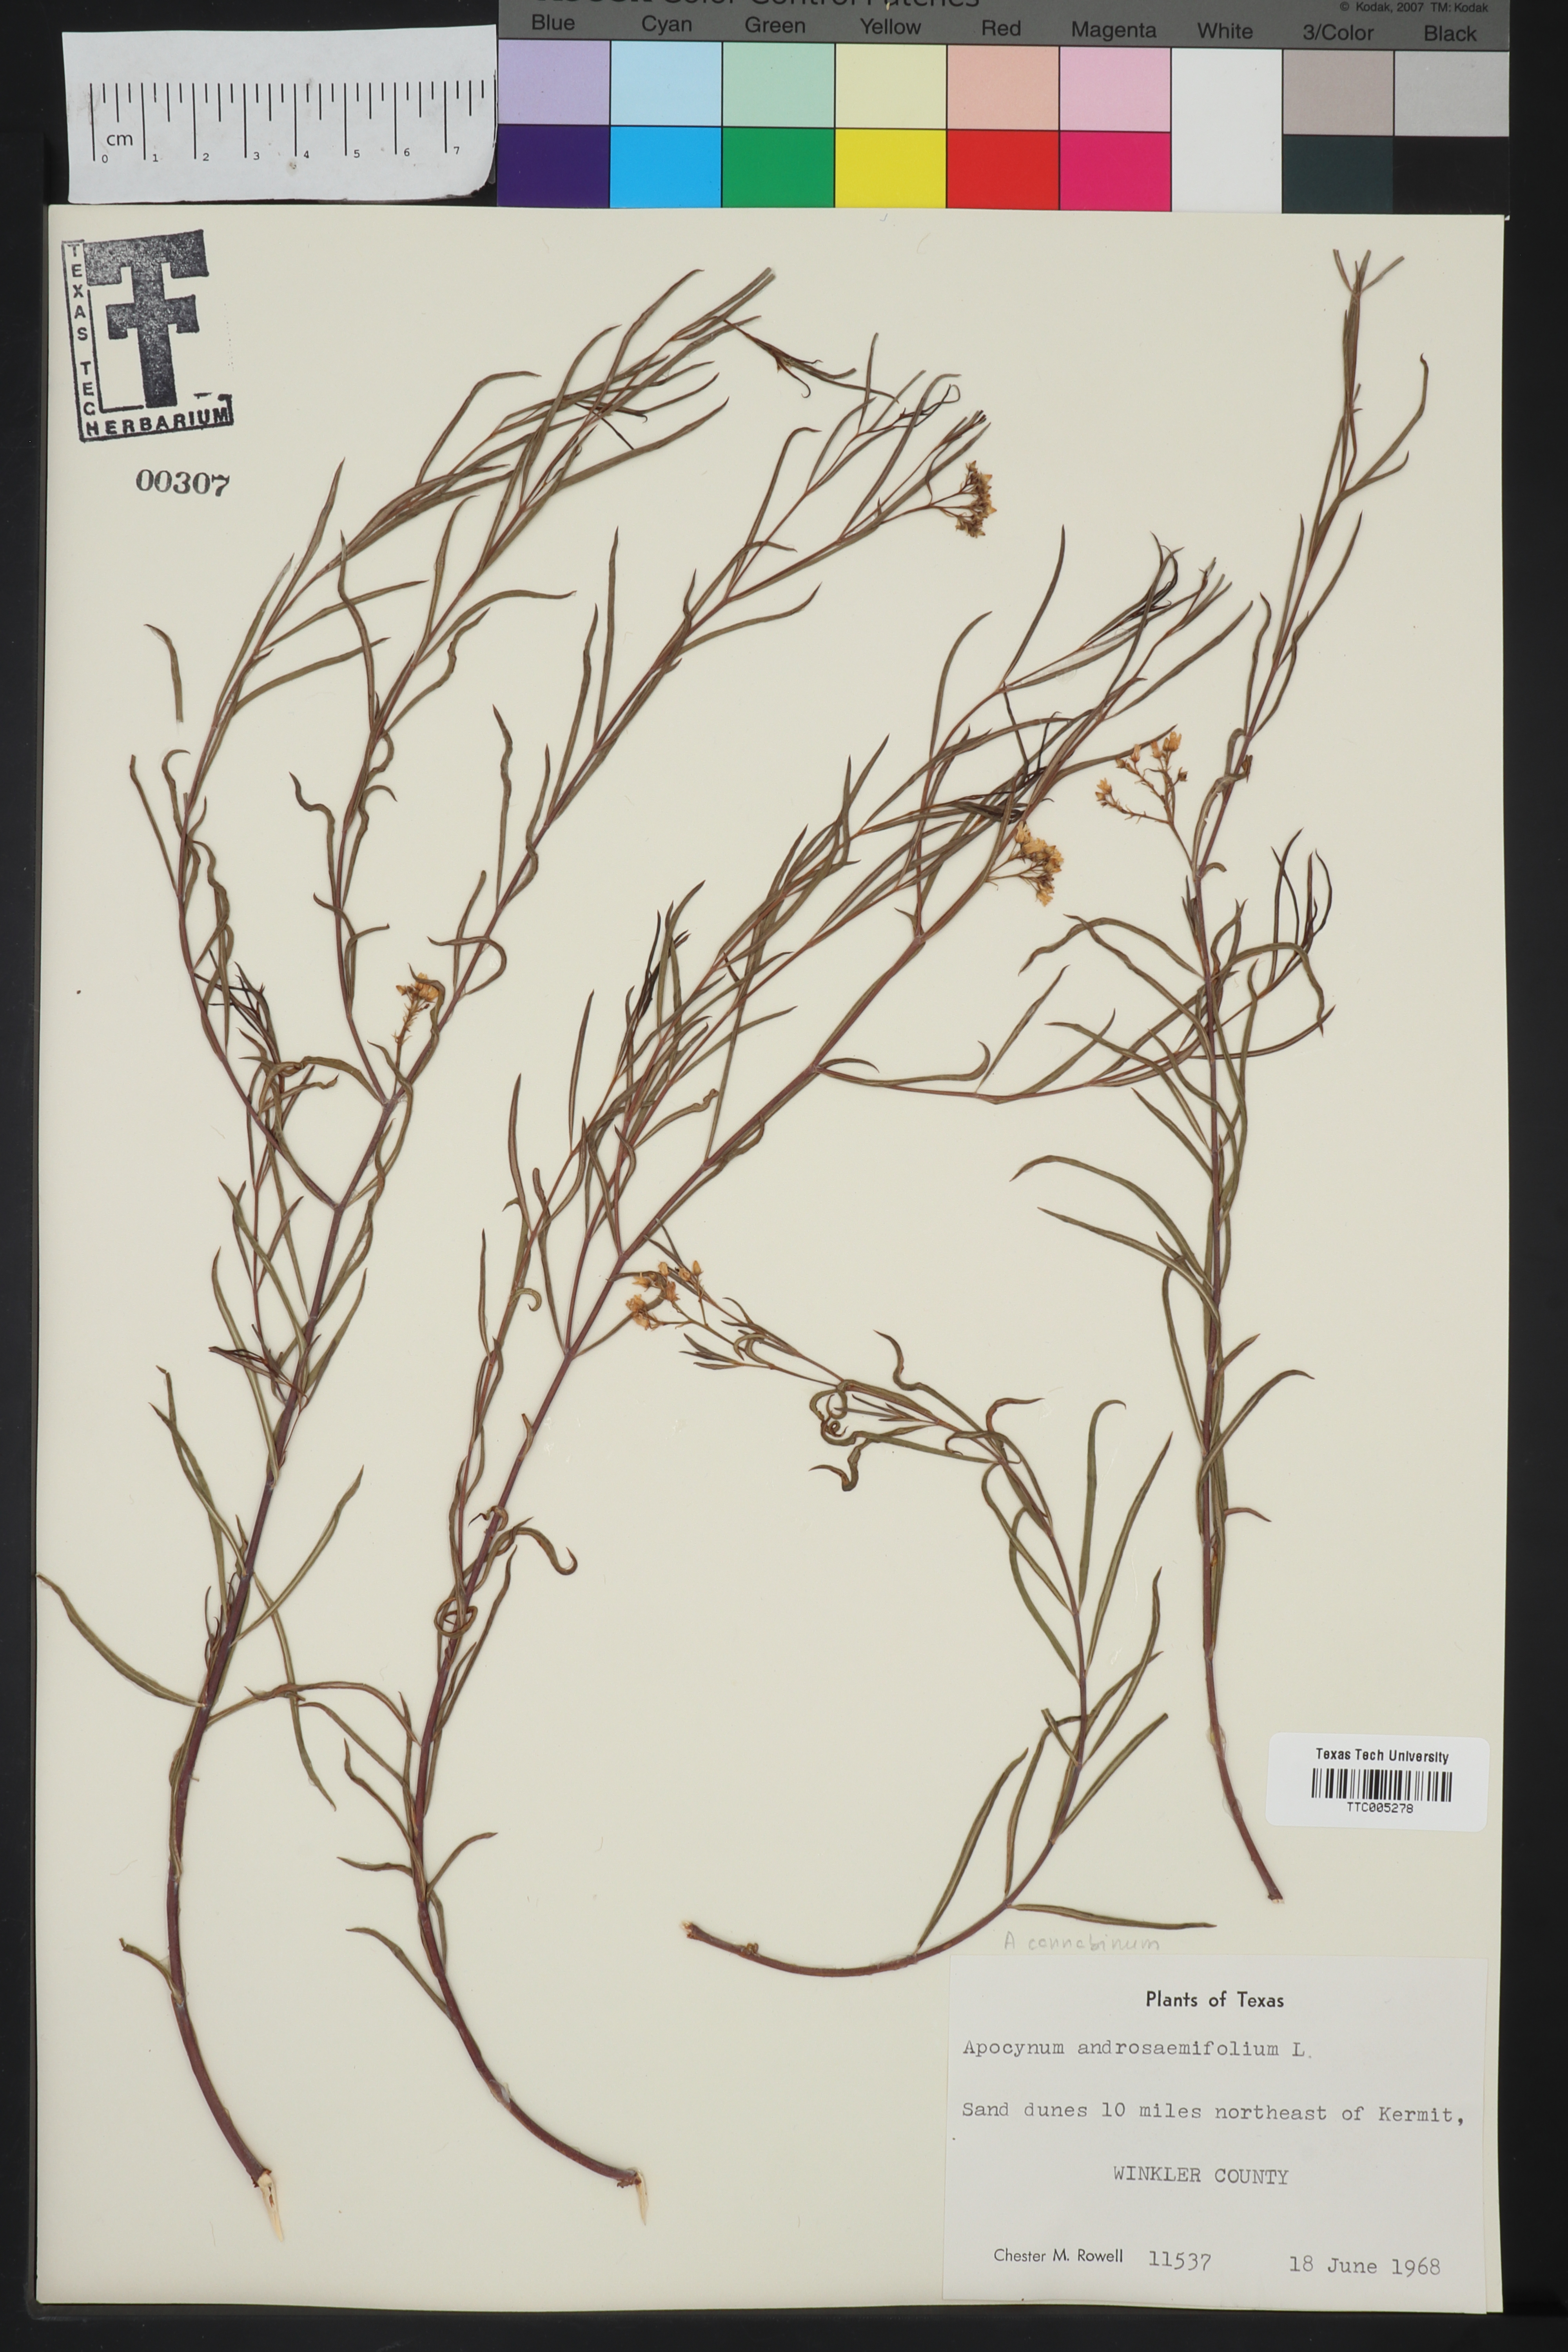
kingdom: Plantae
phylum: Tracheophyta
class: Magnoliopsida
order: Gentianales
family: Apocynaceae
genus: Apocynum
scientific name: Apocynum androsaemifolium
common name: Spreading dogbane
